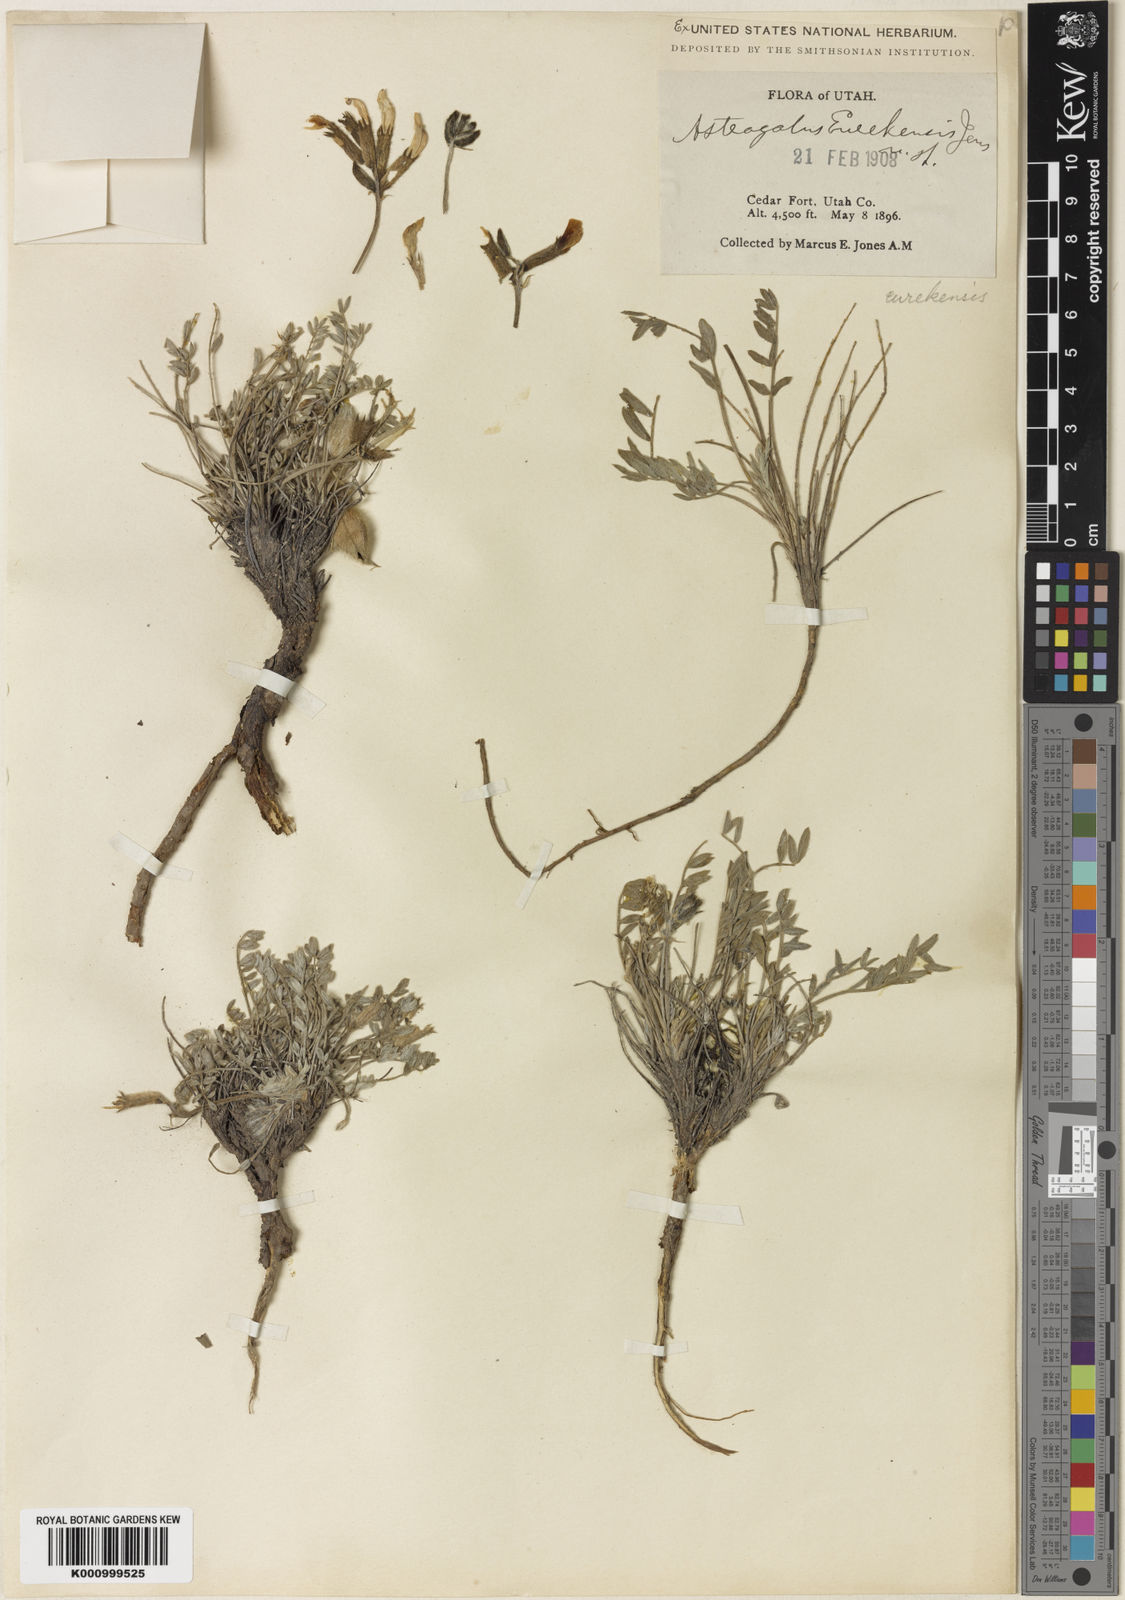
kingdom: Plantae
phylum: Tracheophyta
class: Magnoliopsida
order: Fabales
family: Fabaceae
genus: Astragalus
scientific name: Astragalus eurekensis
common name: Eureka milk-vetch
